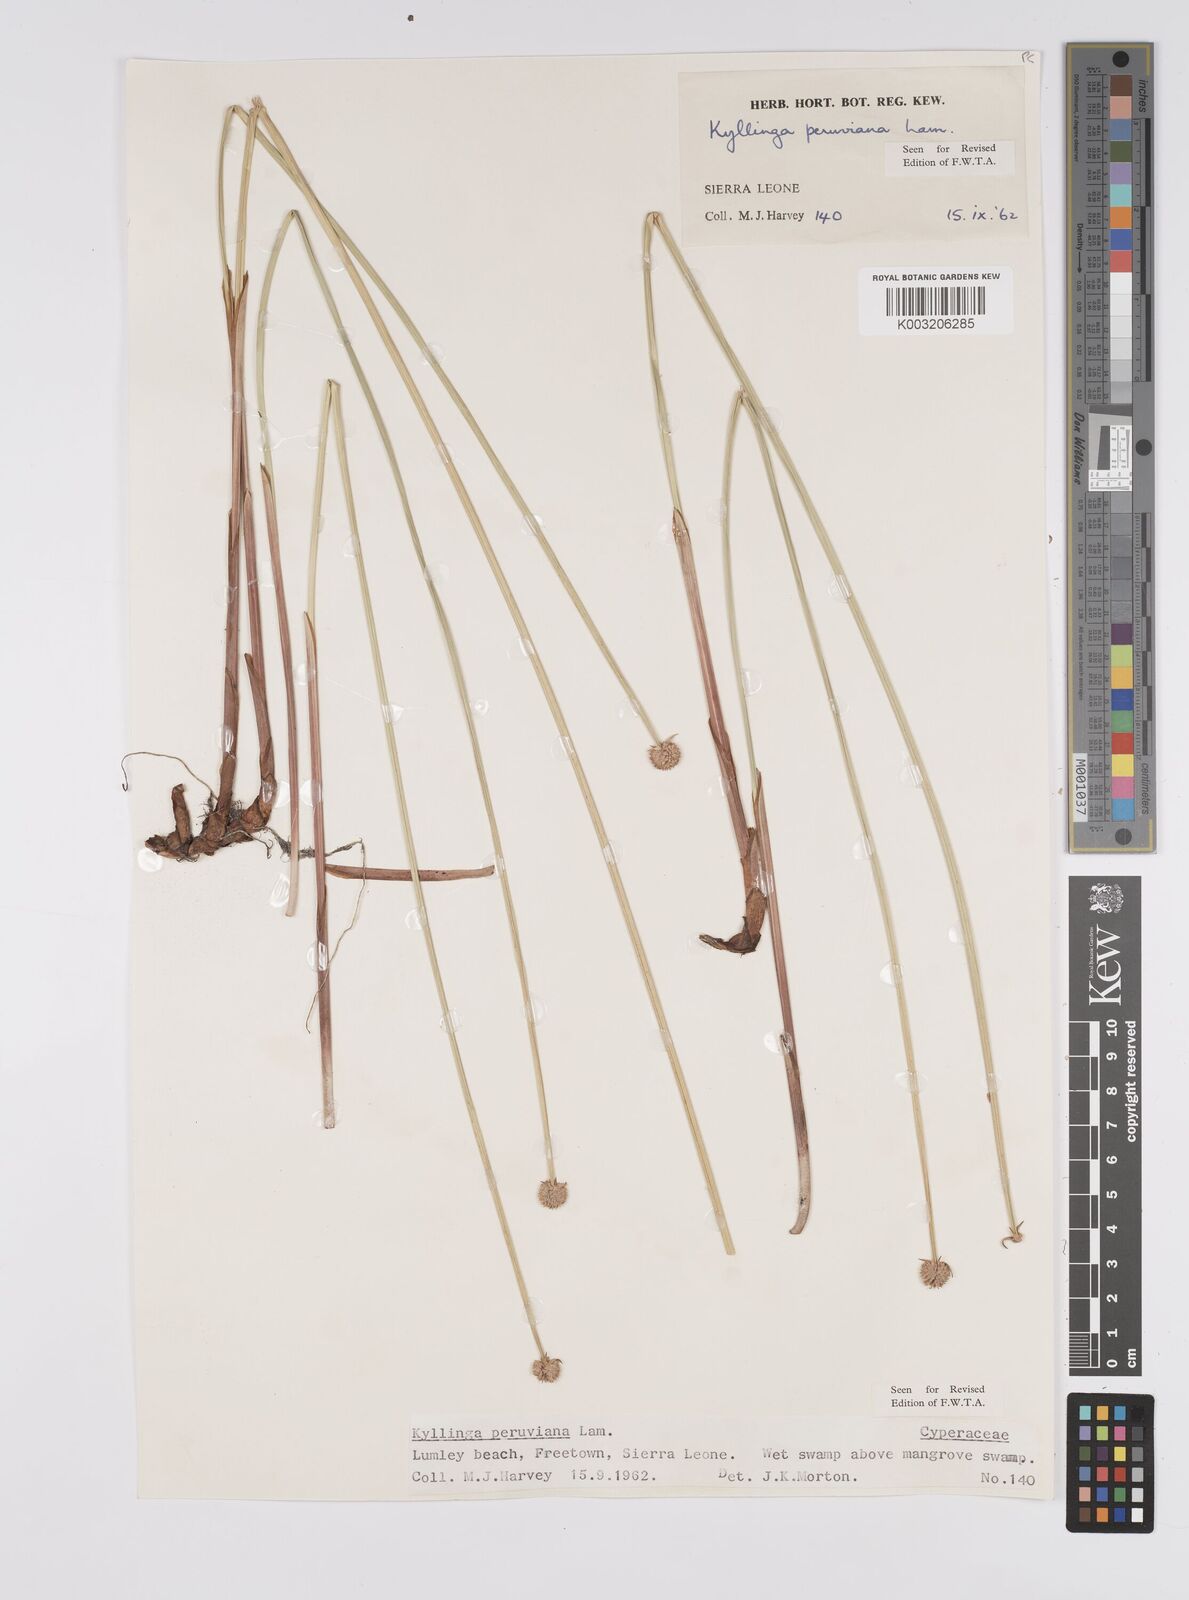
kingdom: Plantae
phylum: Tracheophyta
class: Liliopsida
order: Poales
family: Cyperaceae
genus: Cyperus
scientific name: Cyperus obtusatus
